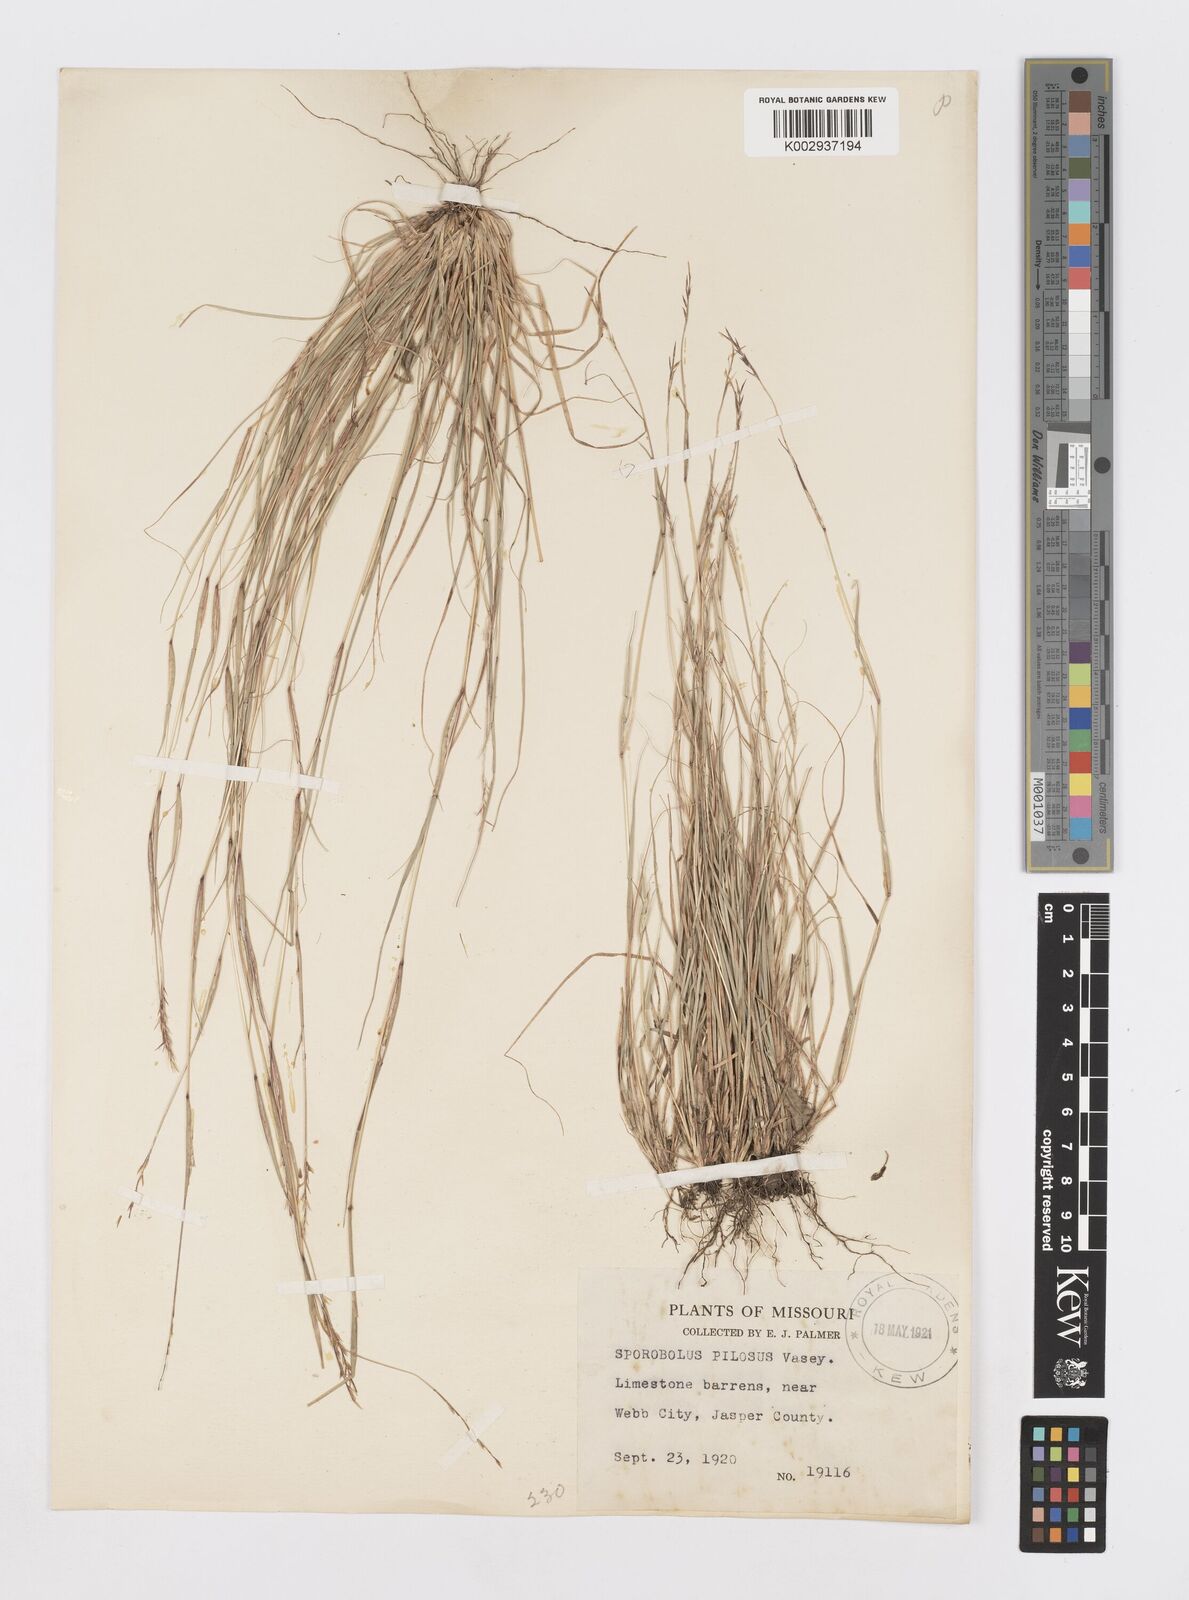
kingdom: Plantae
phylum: Tracheophyta
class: Liliopsida
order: Poales
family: Poaceae
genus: Sporobolus
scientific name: Sporobolus compositus
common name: Rough dropseed
